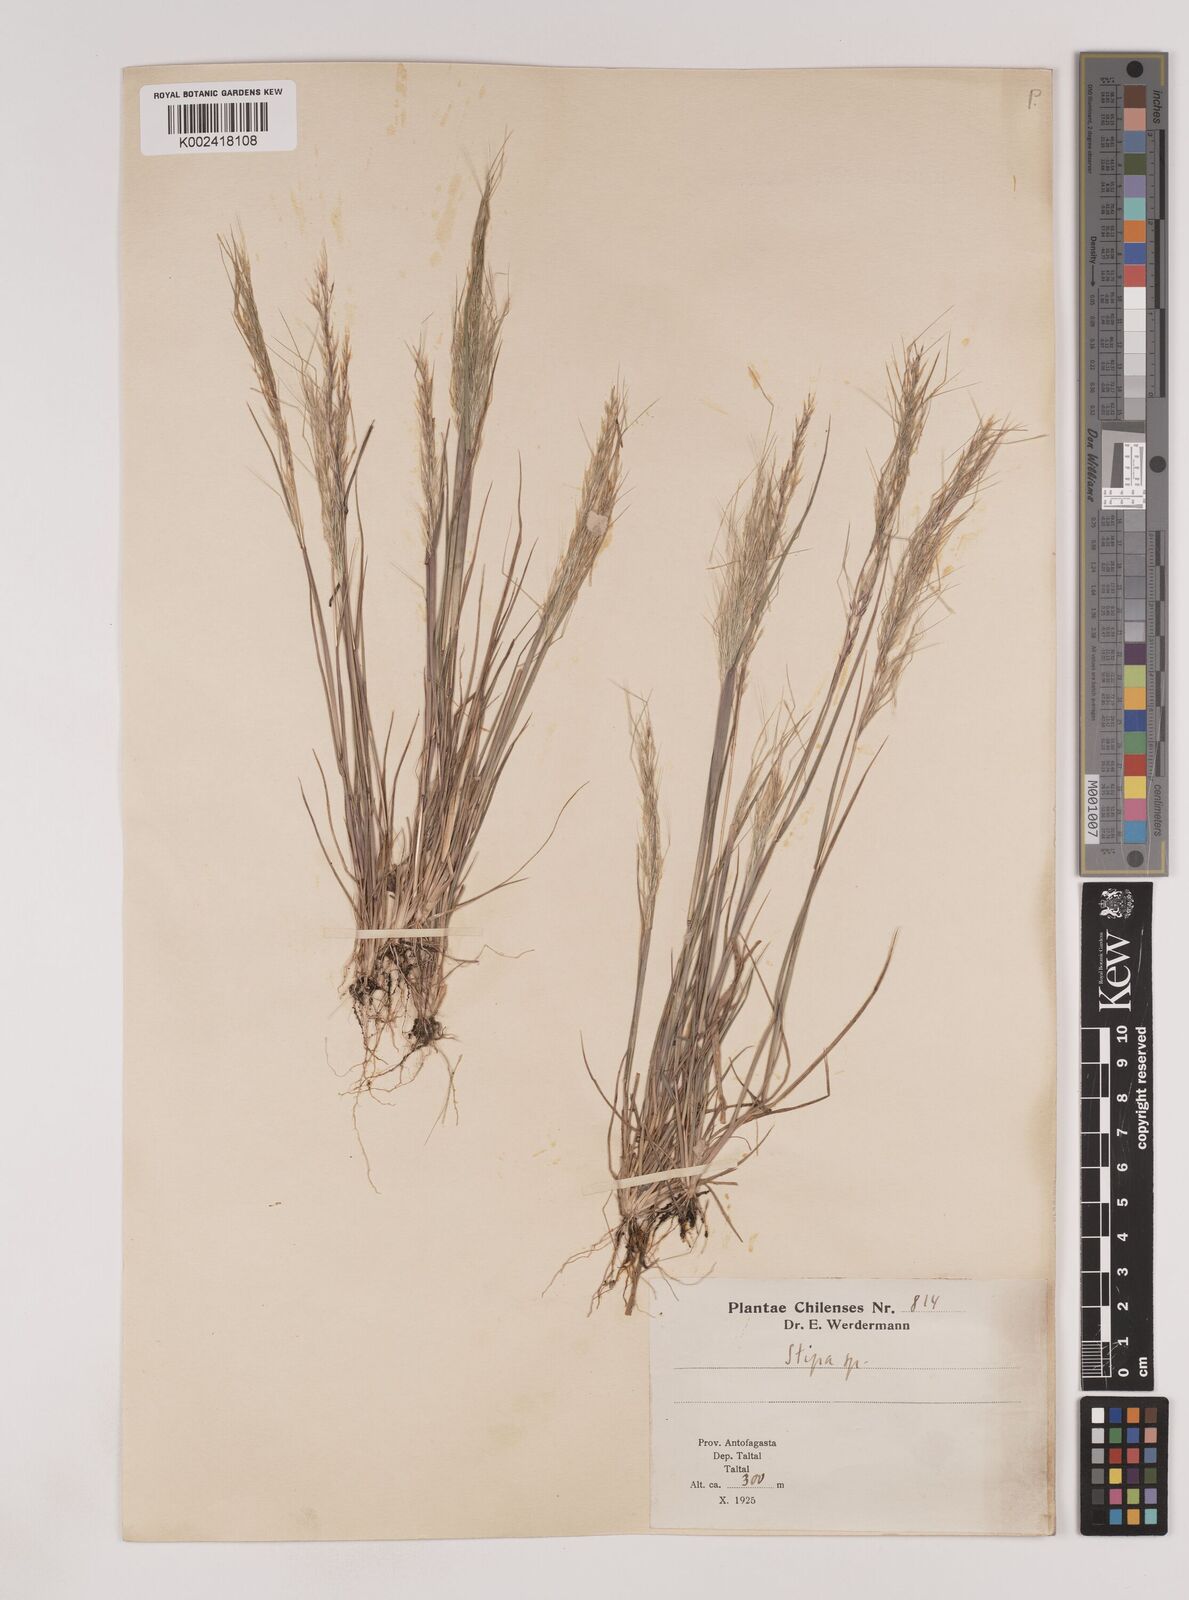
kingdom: Plantae
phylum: Tracheophyta
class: Liliopsida
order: Poales
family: Poaceae
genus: Nassella
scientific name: Nassella
